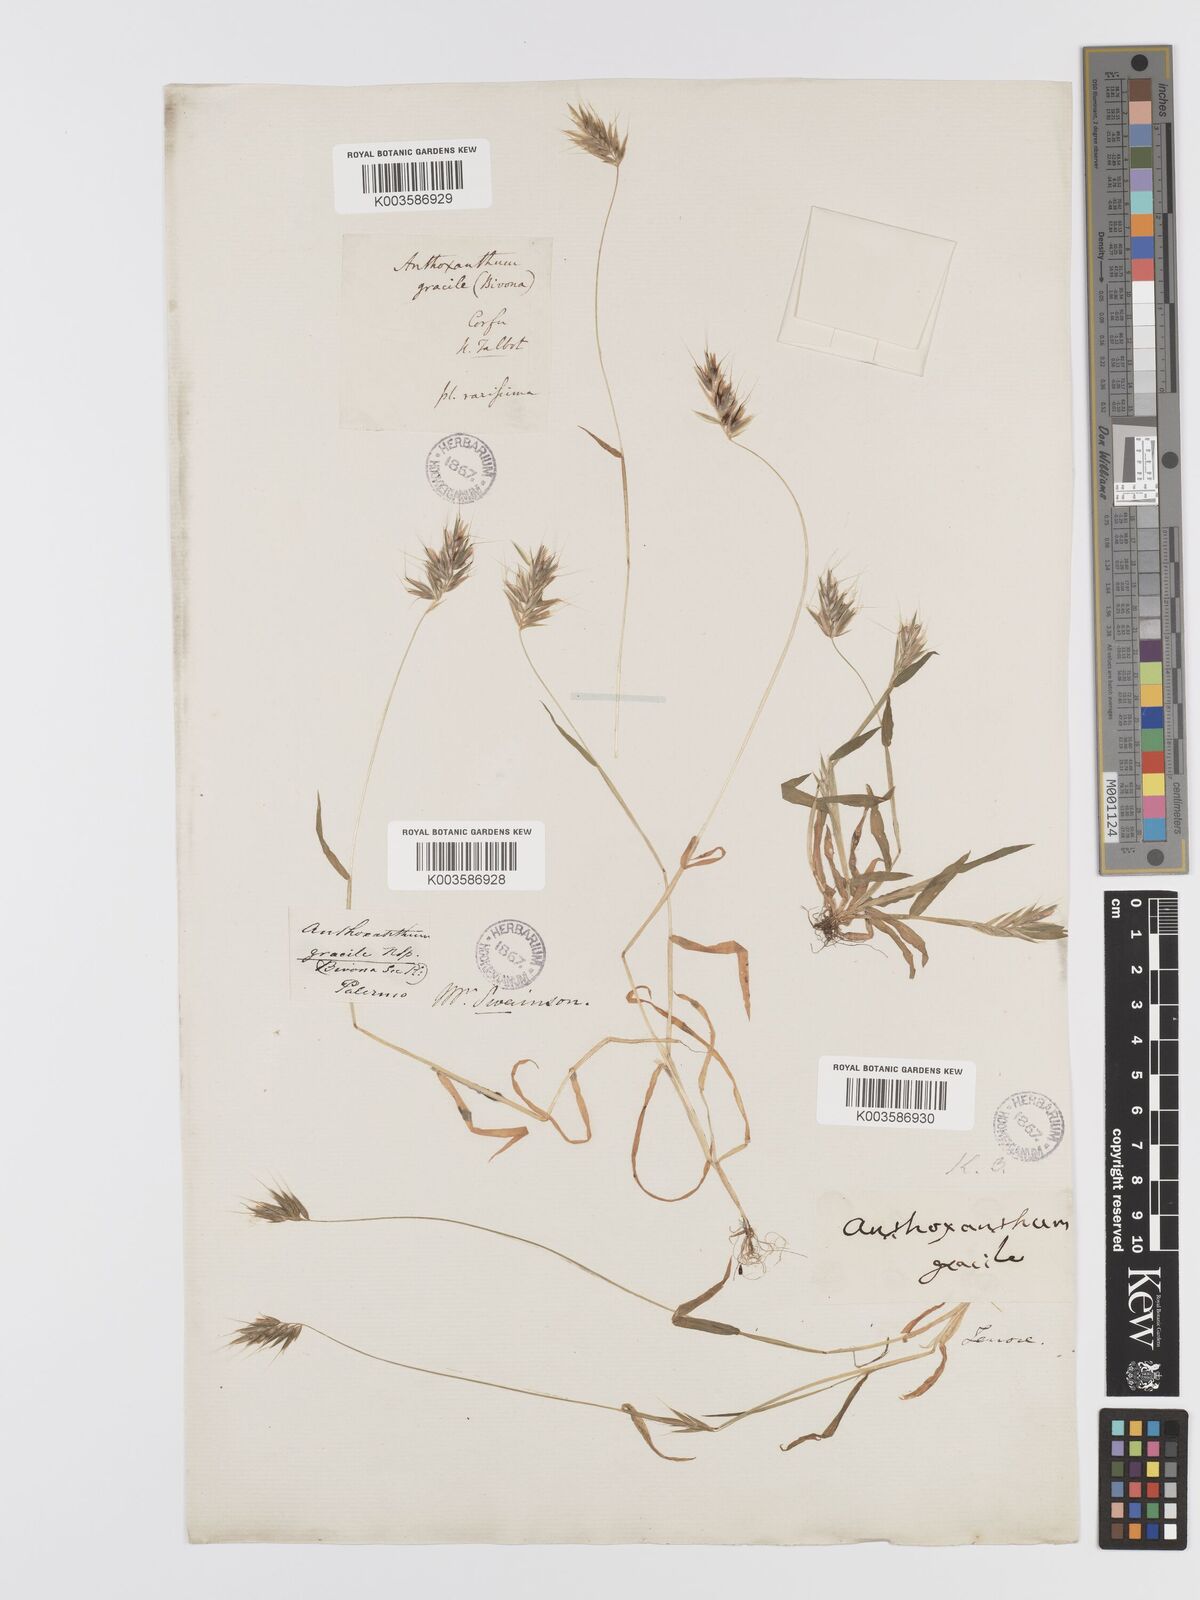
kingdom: Plantae
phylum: Tracheophyta
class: Liliopsida
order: Poales
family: Poaceae
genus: Anthoxanthum
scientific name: Anthoxanthum gracile
